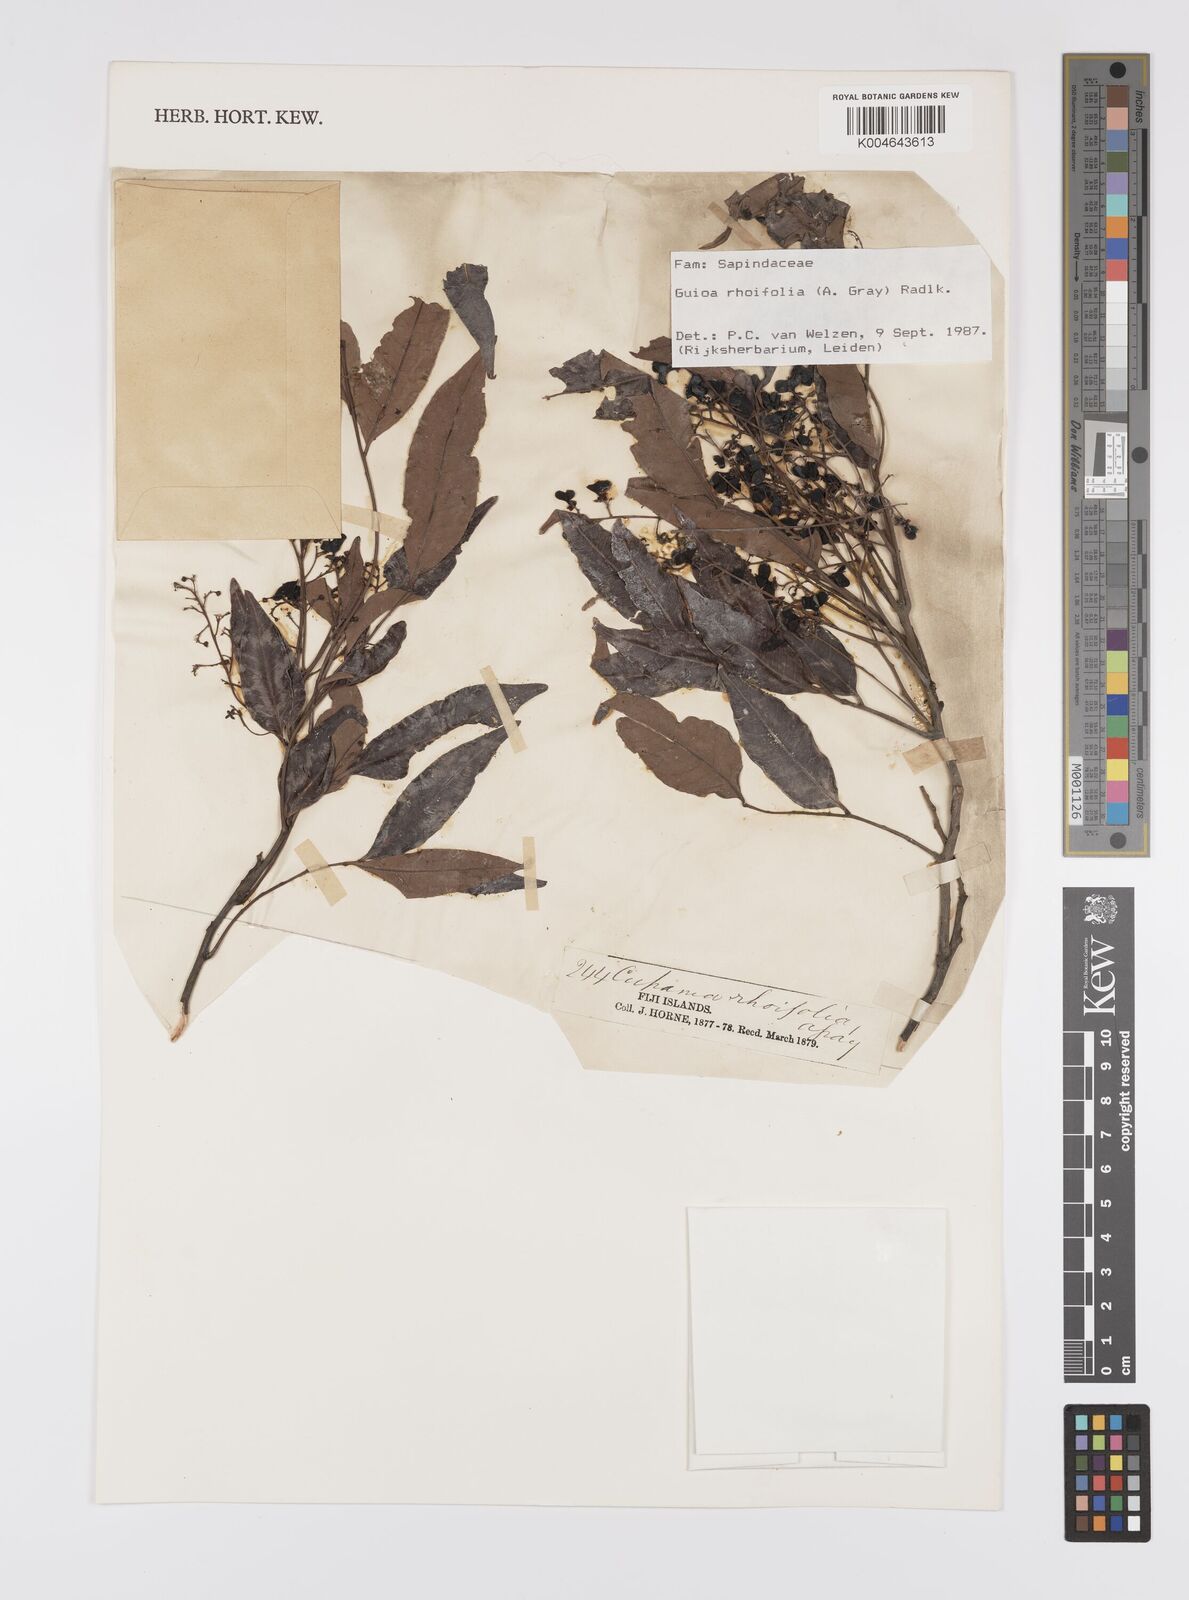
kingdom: Plantae
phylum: Tracheophyta
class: Magnoliopsida
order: Sapindales
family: Sapindaceae
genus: Guioa
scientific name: Guioa rhoifolia
